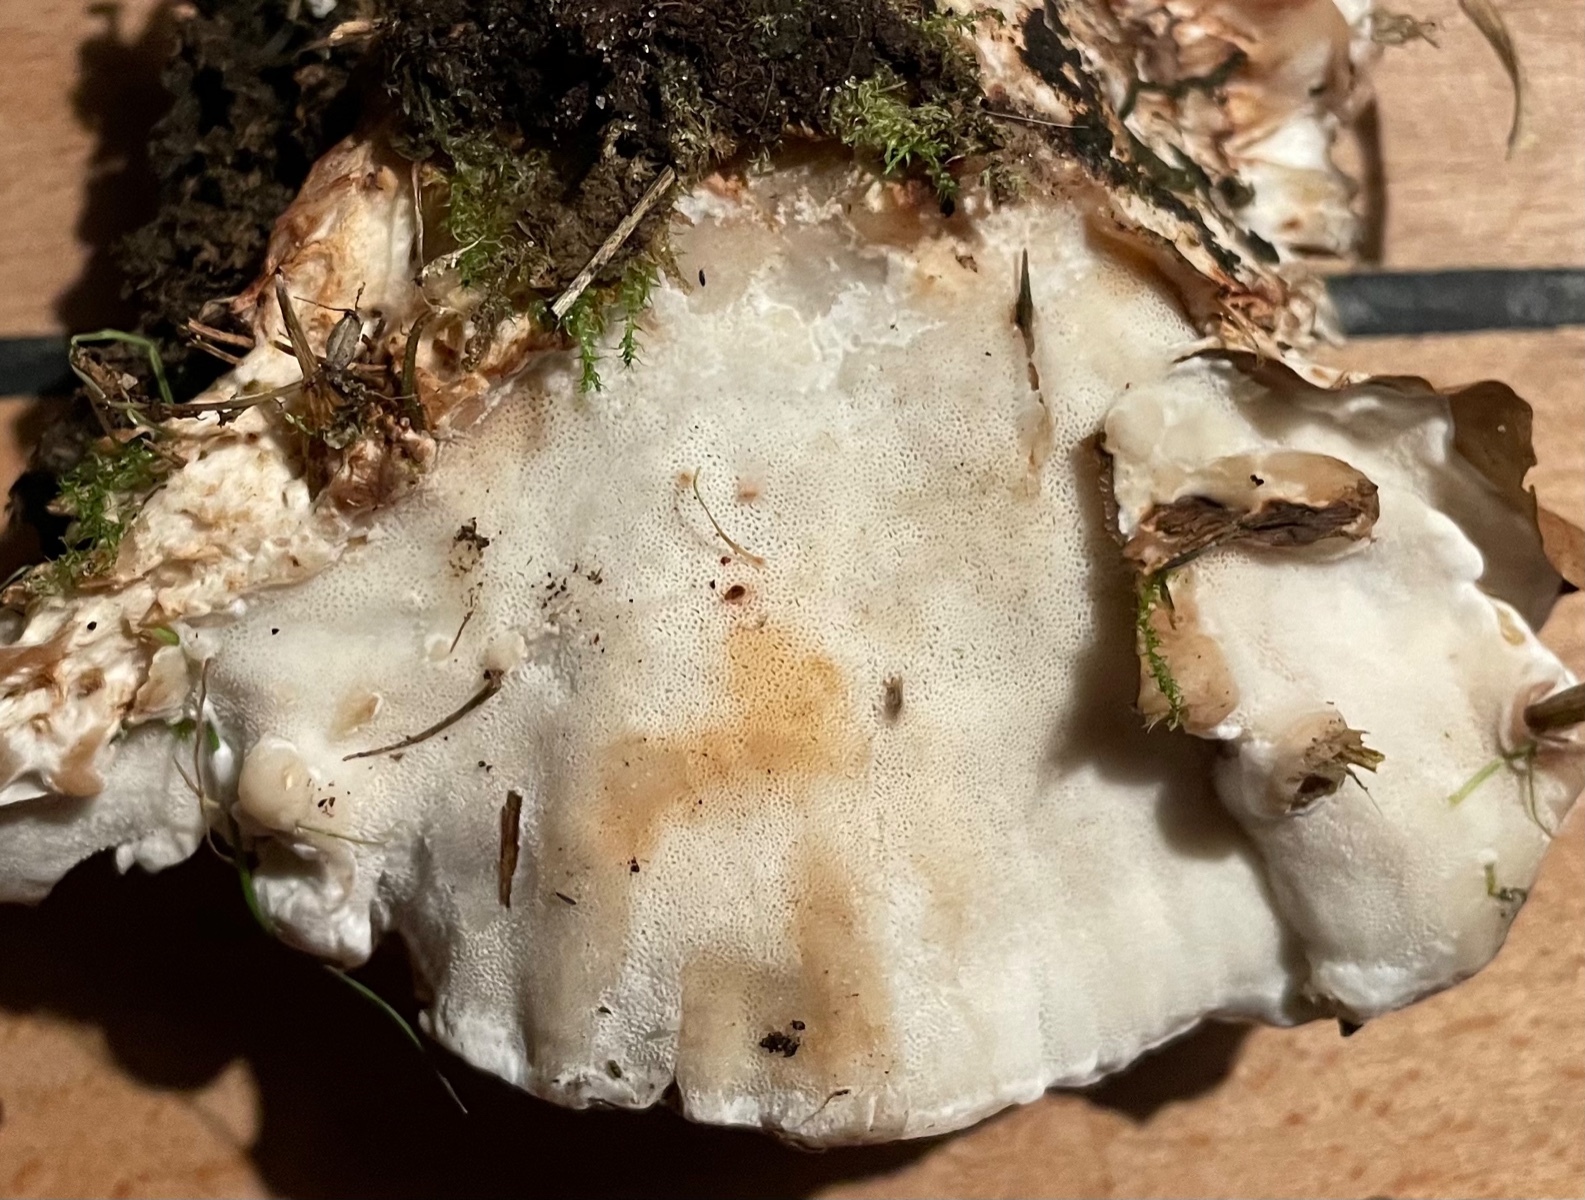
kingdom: Fungi
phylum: Basidiomycota
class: Agaricomycetes
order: Polyporales
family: Phanerochaetaceae
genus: Bjerkandera
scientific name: Bjerkandera
